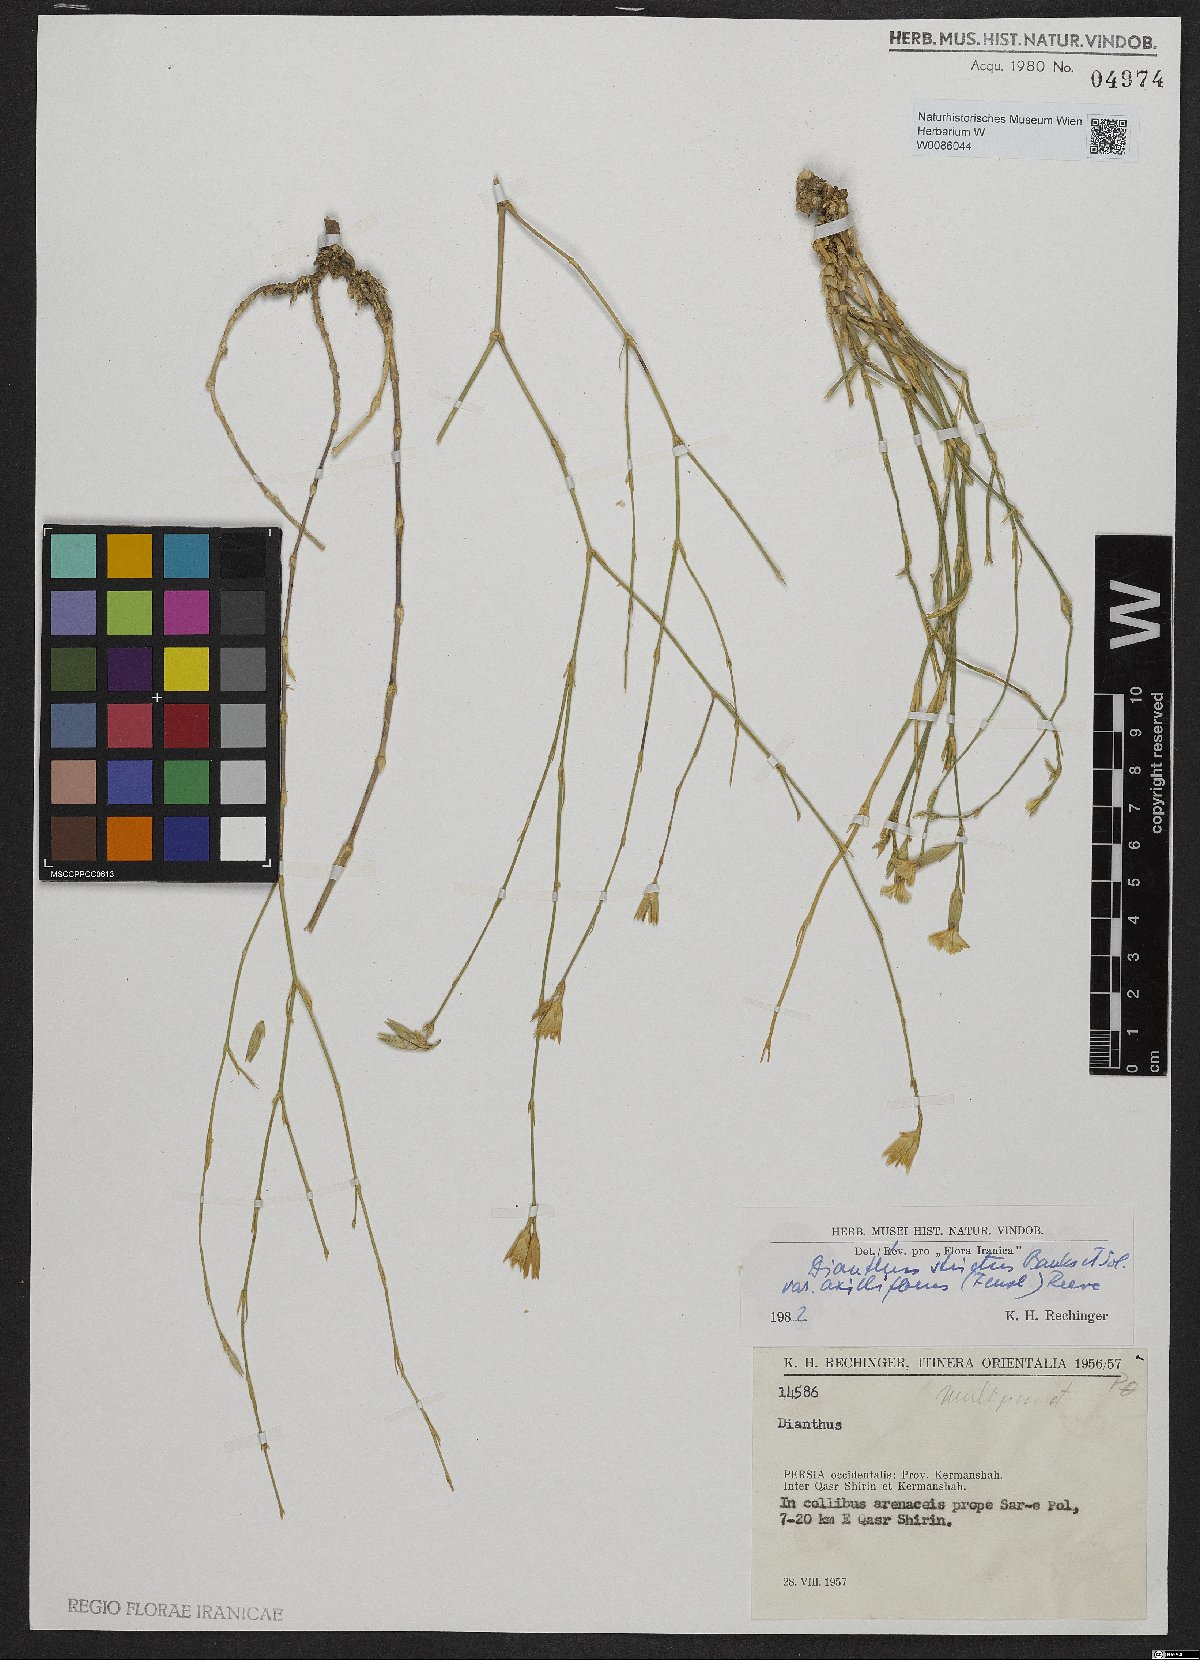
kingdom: Plantae
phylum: Tracheophyta
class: Magnoliopsida
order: Caryophyllales
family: Caryophyllaceae
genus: Dianthus
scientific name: Dianthus strictus
